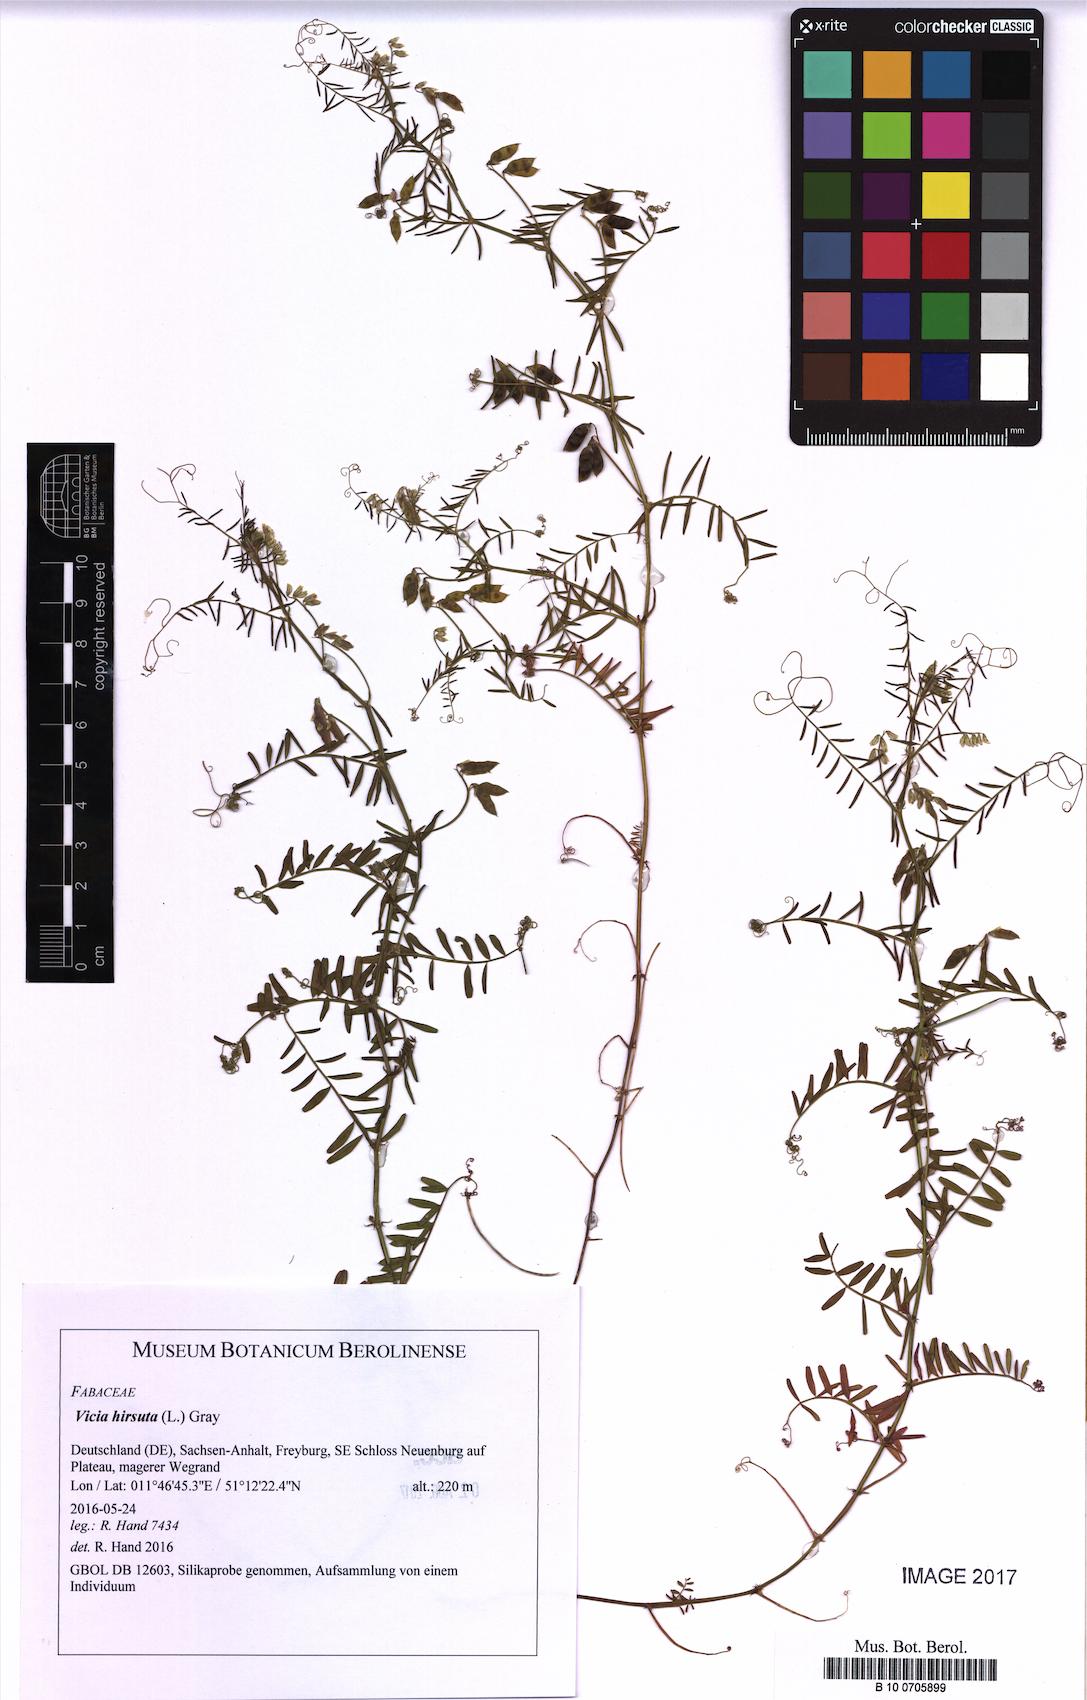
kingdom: Plantae
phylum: Tracheophyta
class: Magnoliopsida
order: Fabales
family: Fabaceae
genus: Vicia
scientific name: Vicia hirsuta
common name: Tiny vetch
